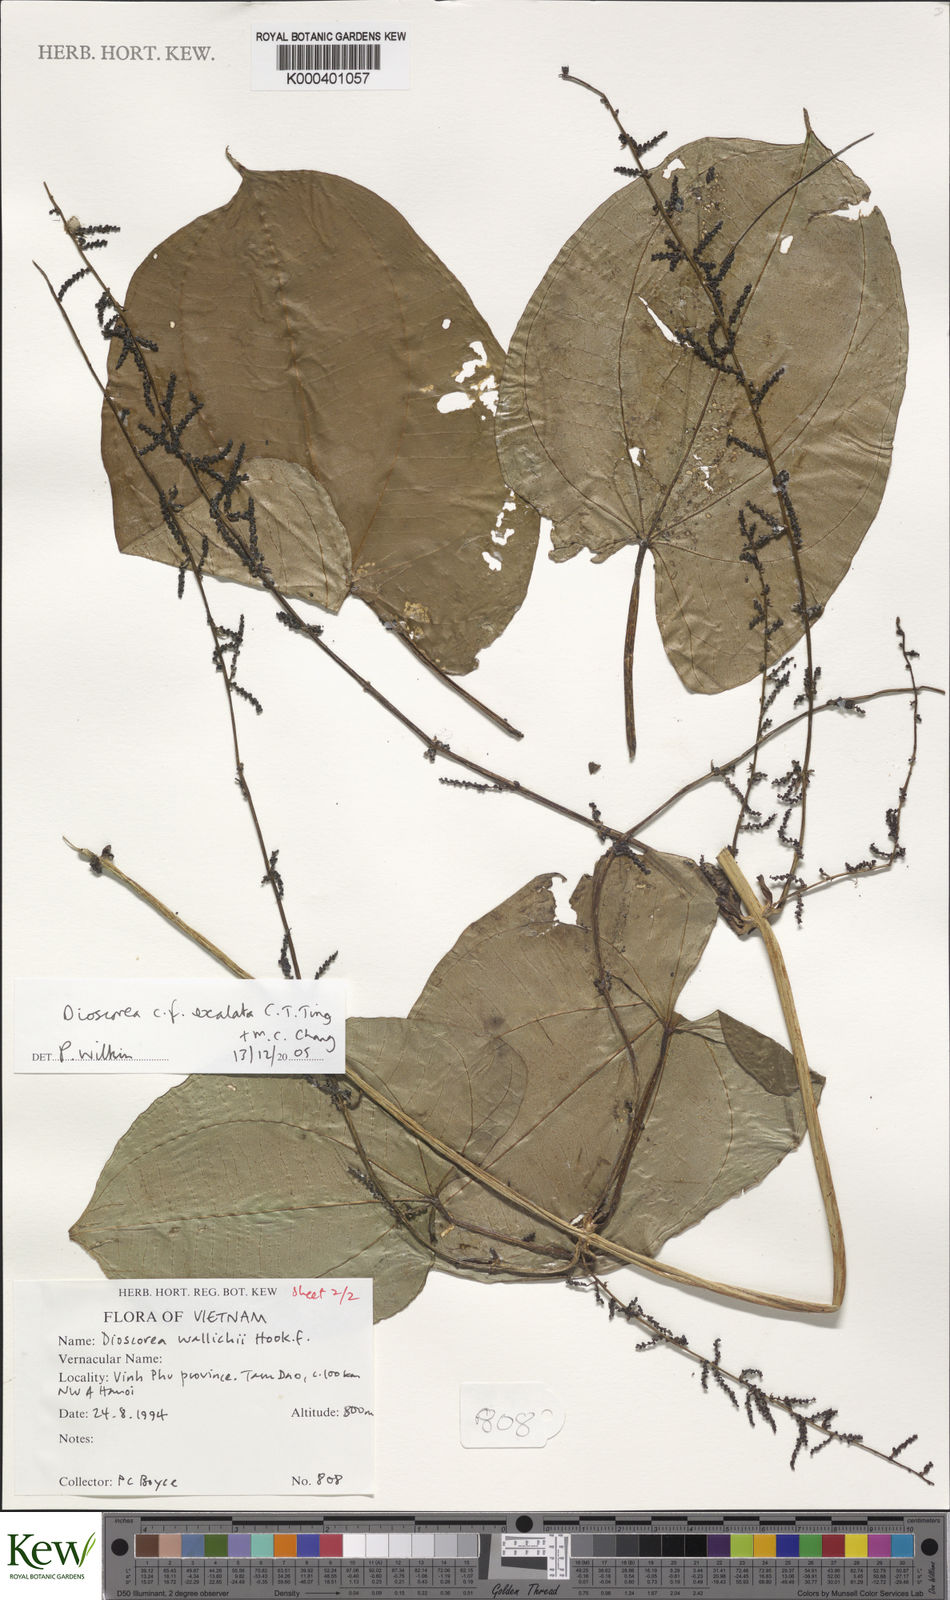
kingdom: Plantae
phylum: Tracheophyta
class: Liliopsida
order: Dioscoreales
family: Dioscoreaceae
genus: Dioscorea
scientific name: Dioscorea wallichii
